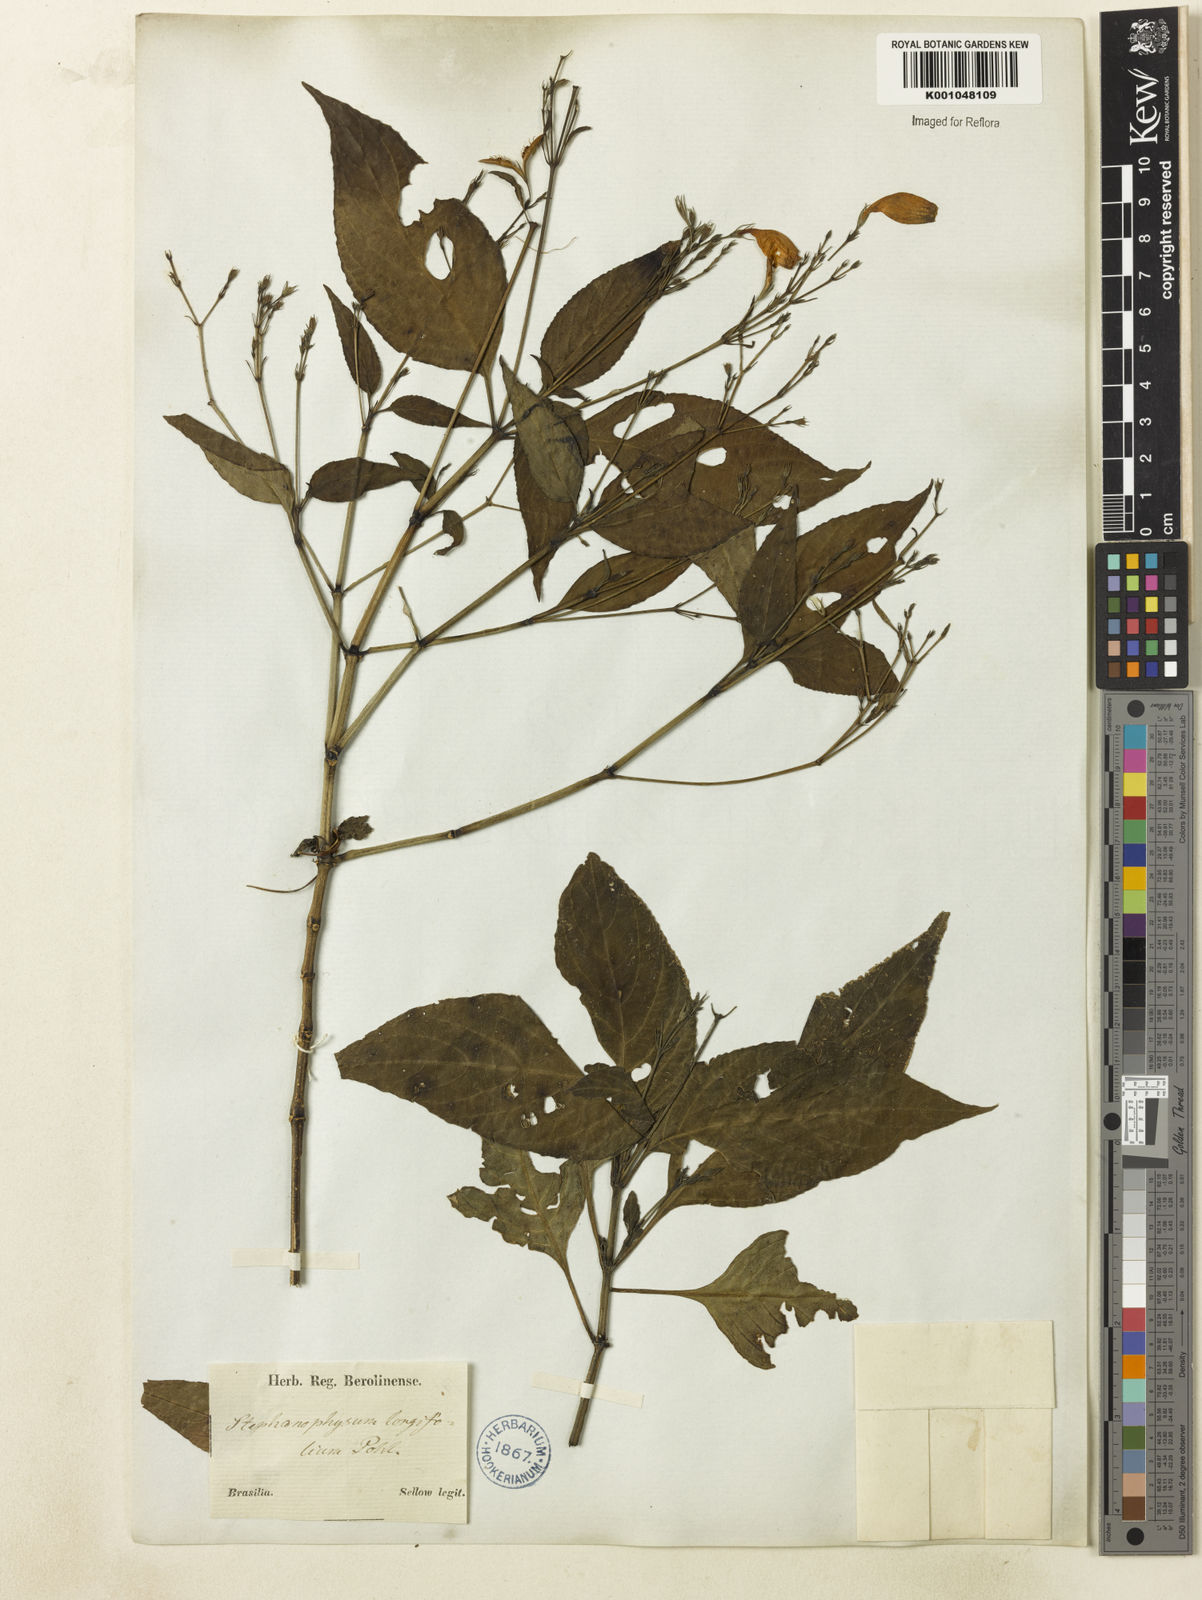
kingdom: Plantae
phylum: Tracheophyta
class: Magnoliopsida
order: Lamiales
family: Acanthaceae
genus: Ruellia
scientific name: Ruellia brevifolia
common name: Tropical wild petunia
